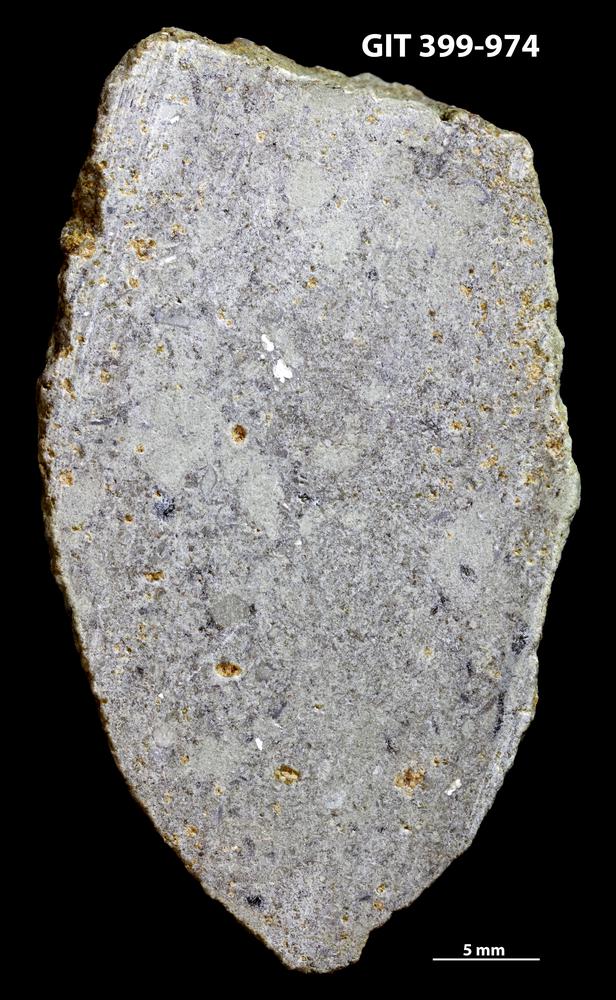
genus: Amphorichnus
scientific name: Amphorichnus
